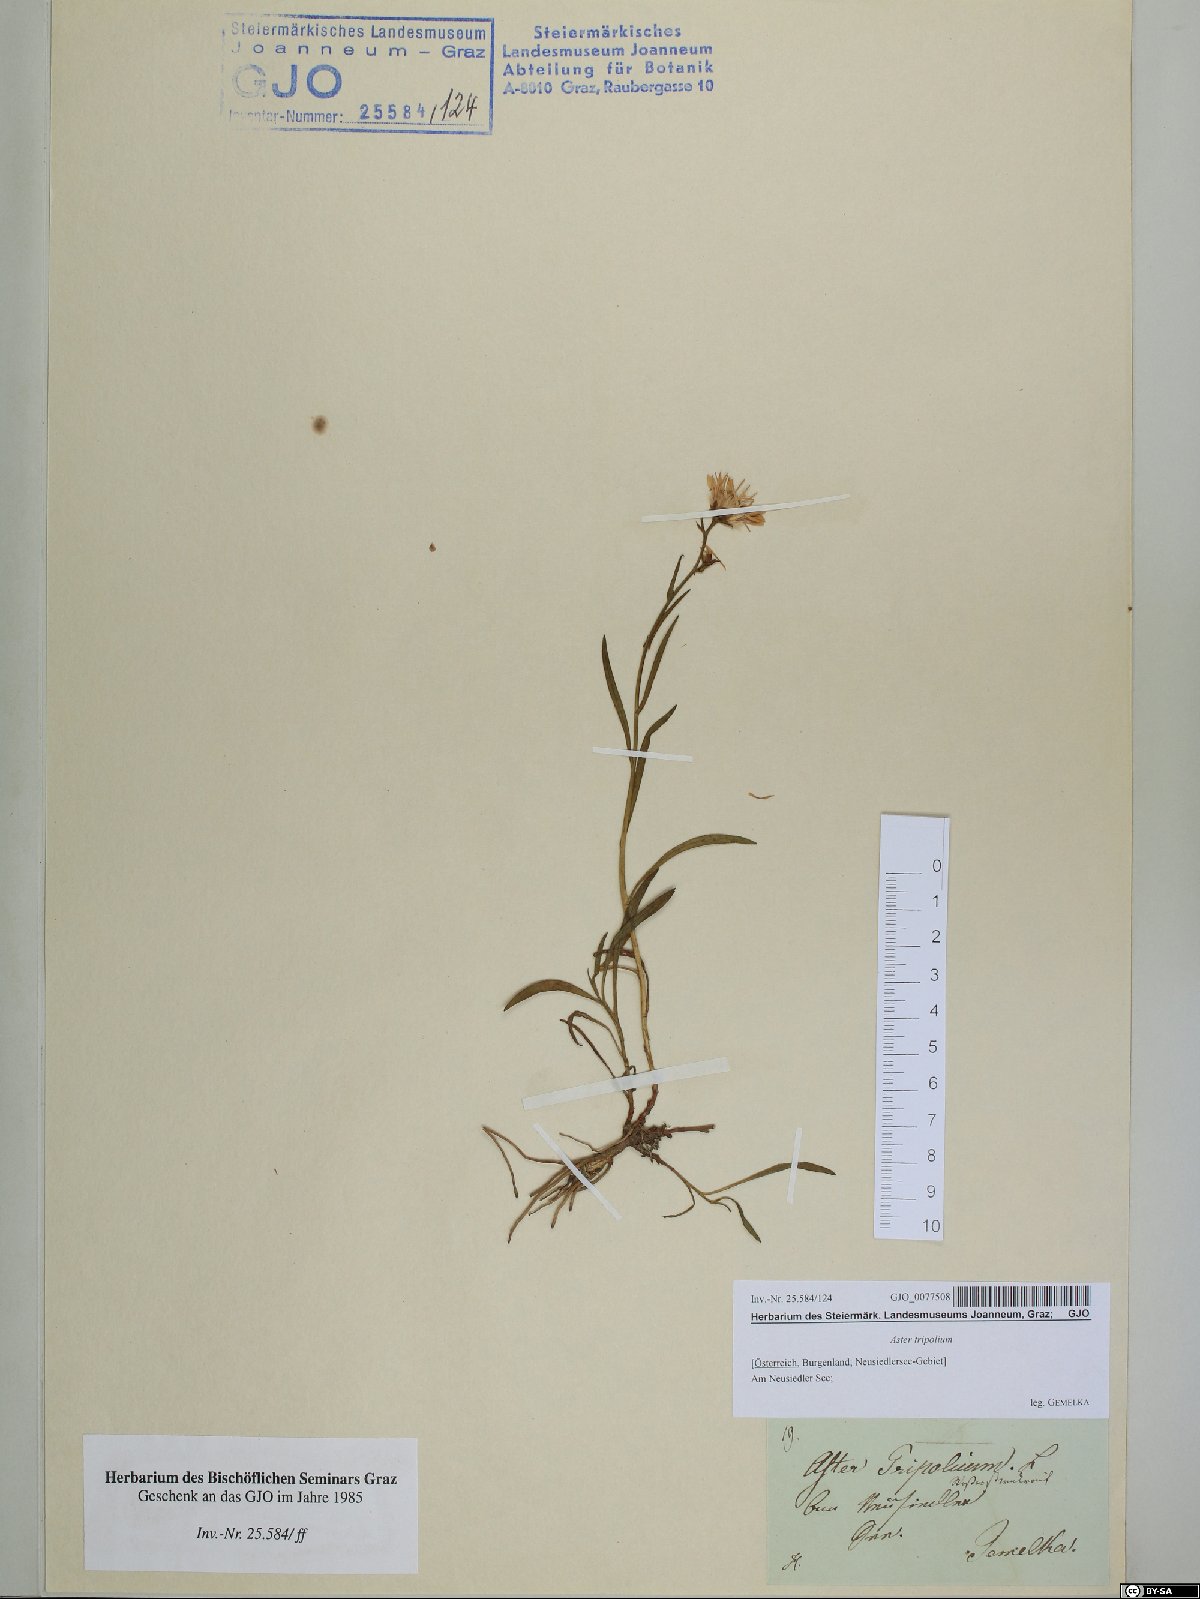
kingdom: Plantae
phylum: Tracheophyta
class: Magnoliopsida
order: Asterales
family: Asteraceae
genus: Tripolium
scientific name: Tripolium pannonicum
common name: Sea aster
